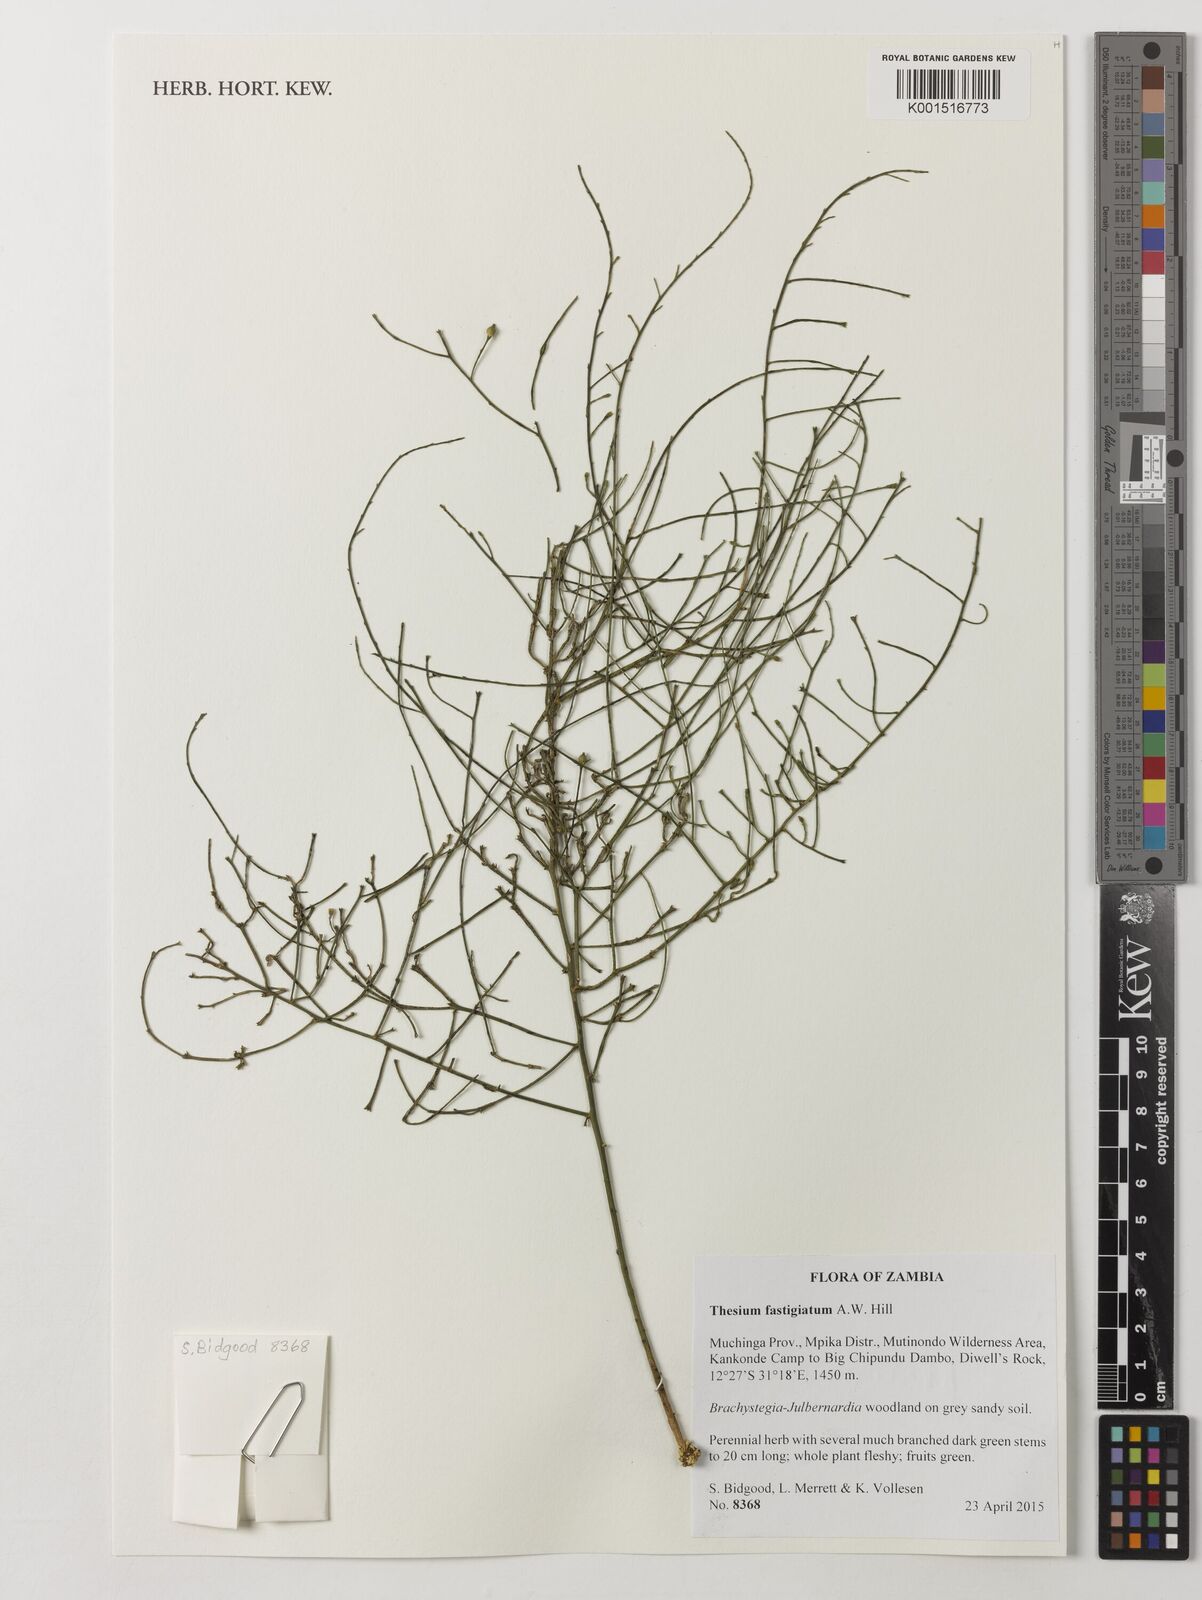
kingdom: Plantae
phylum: Tracheophyta
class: Magnoliopsida
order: Santalales
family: Thesiaceae
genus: Thesium
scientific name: Thesium fastigiatum
